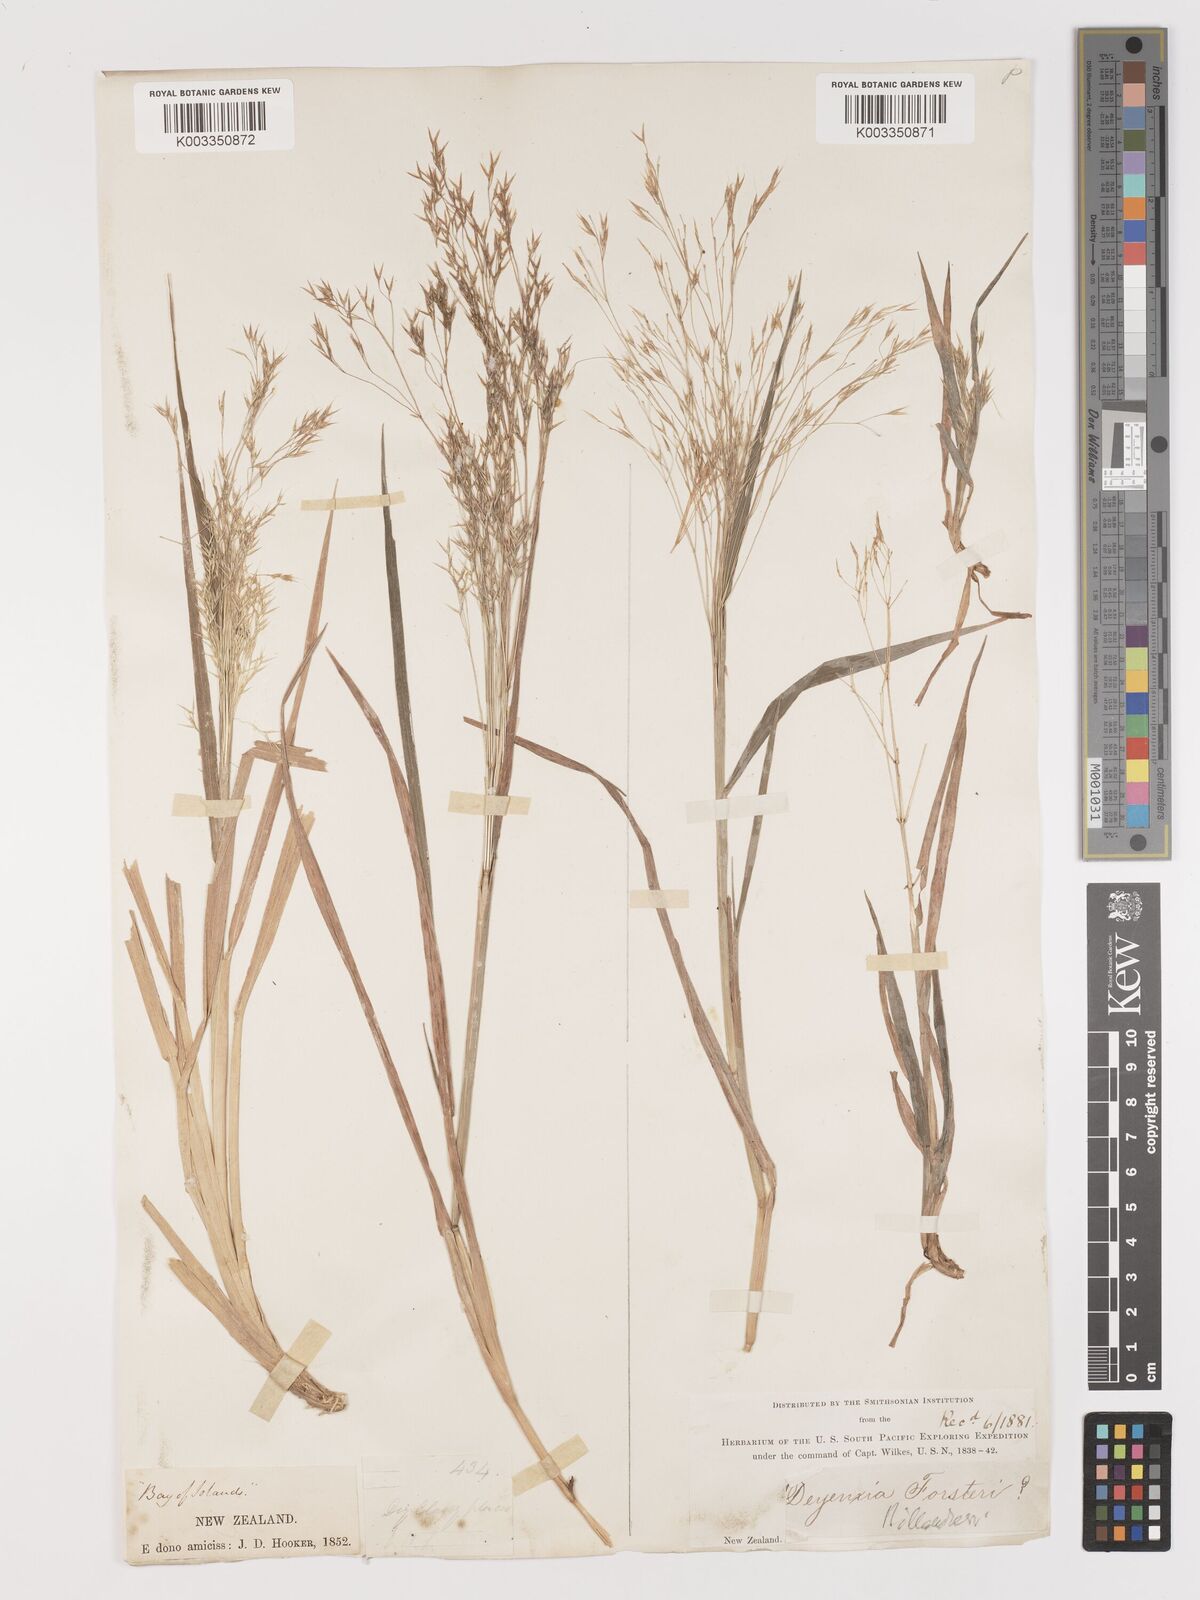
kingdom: Plantae
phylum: Tracheophyta
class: Liliopsida
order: Poales
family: Poaceae
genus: Lachnagrostis
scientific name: Lachnagrostis billardierei
